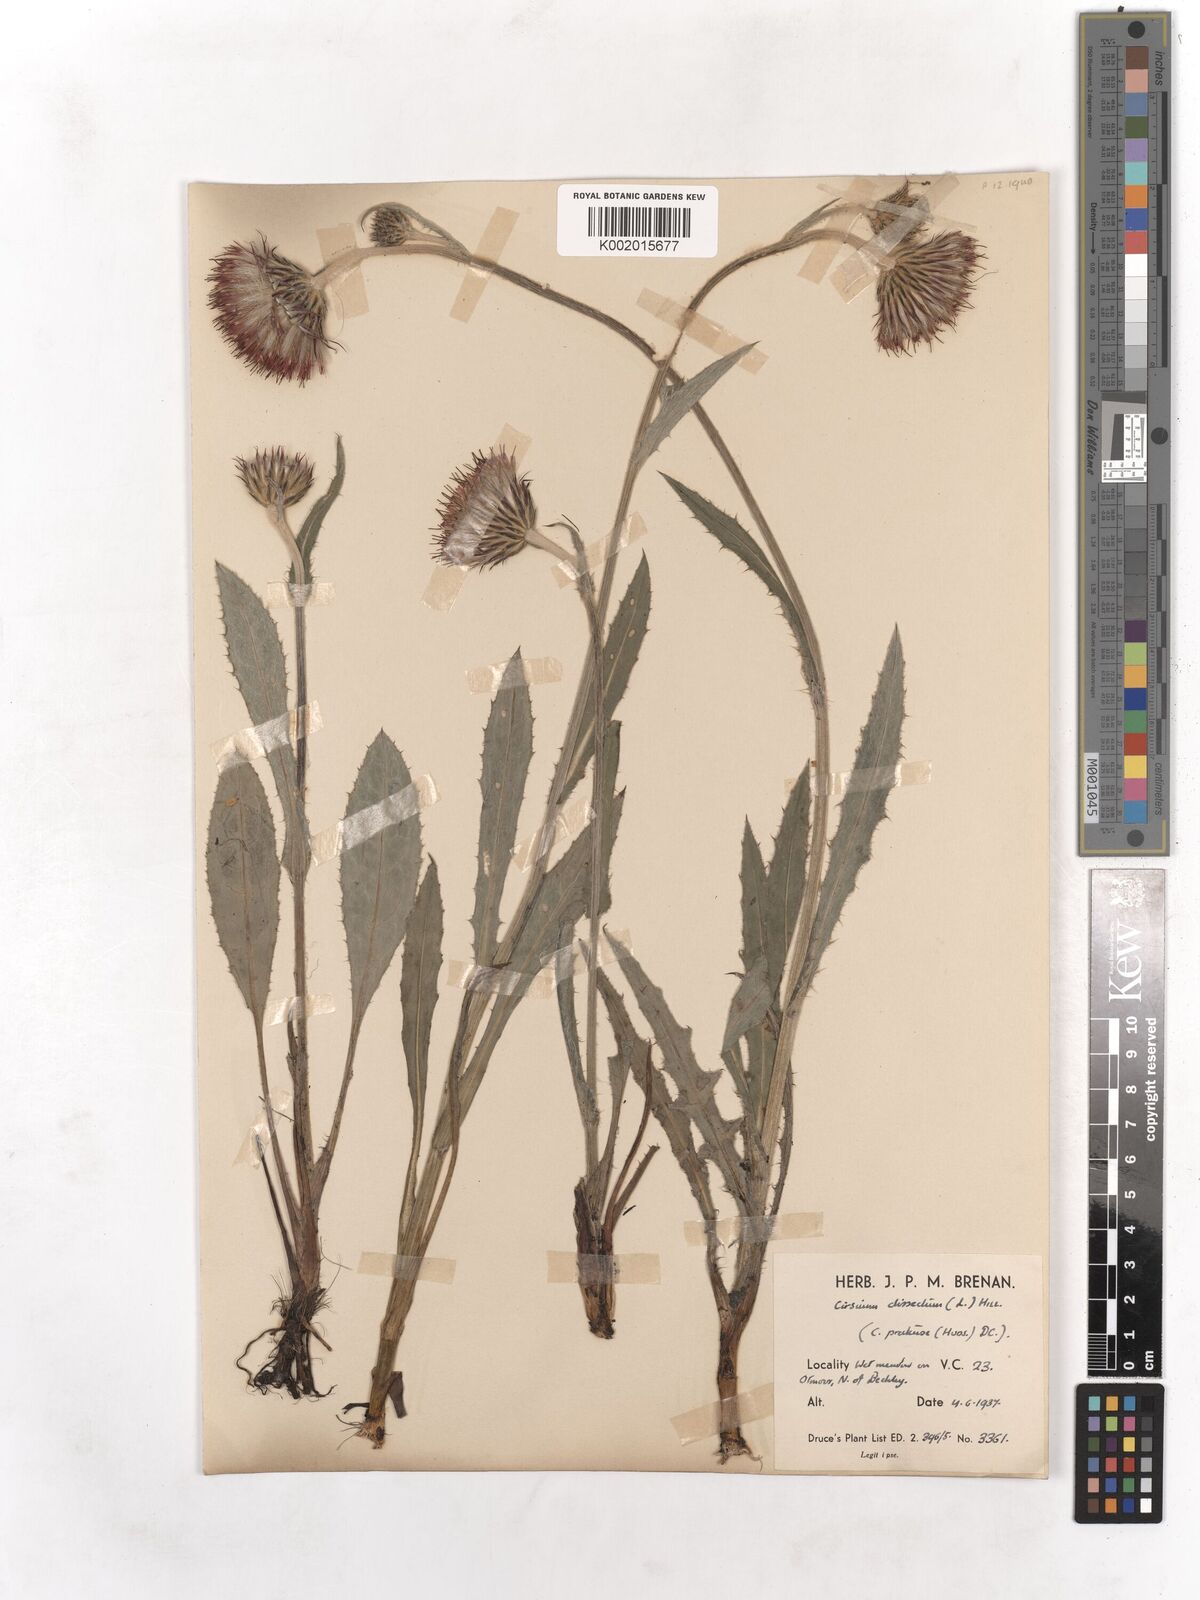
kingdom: Plantae
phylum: Tracheophyta
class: Magnoliopsida
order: Asterales
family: Asteraceae
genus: Cirsium
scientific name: Cirsium dissectum
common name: Meadow thistle
